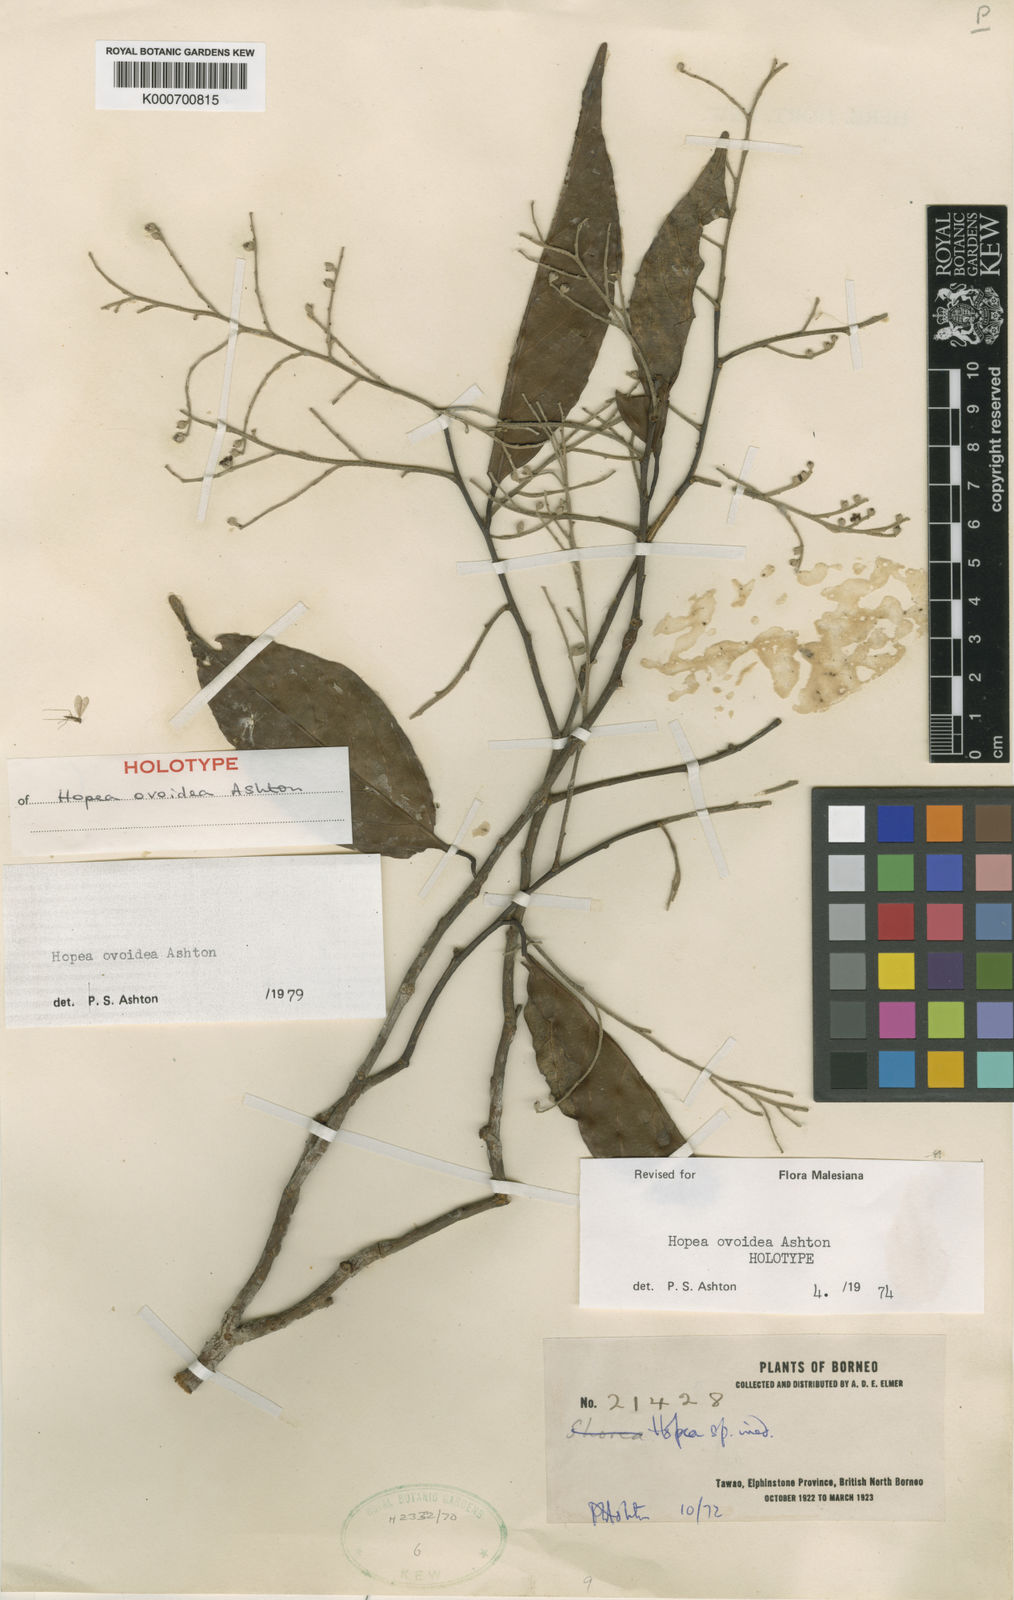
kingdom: Plantae
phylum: Tracheophyta
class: Magnoliopsida
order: Malvales
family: Dipterocarpaceae
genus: Hopea
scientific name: Hopea ovoidea
